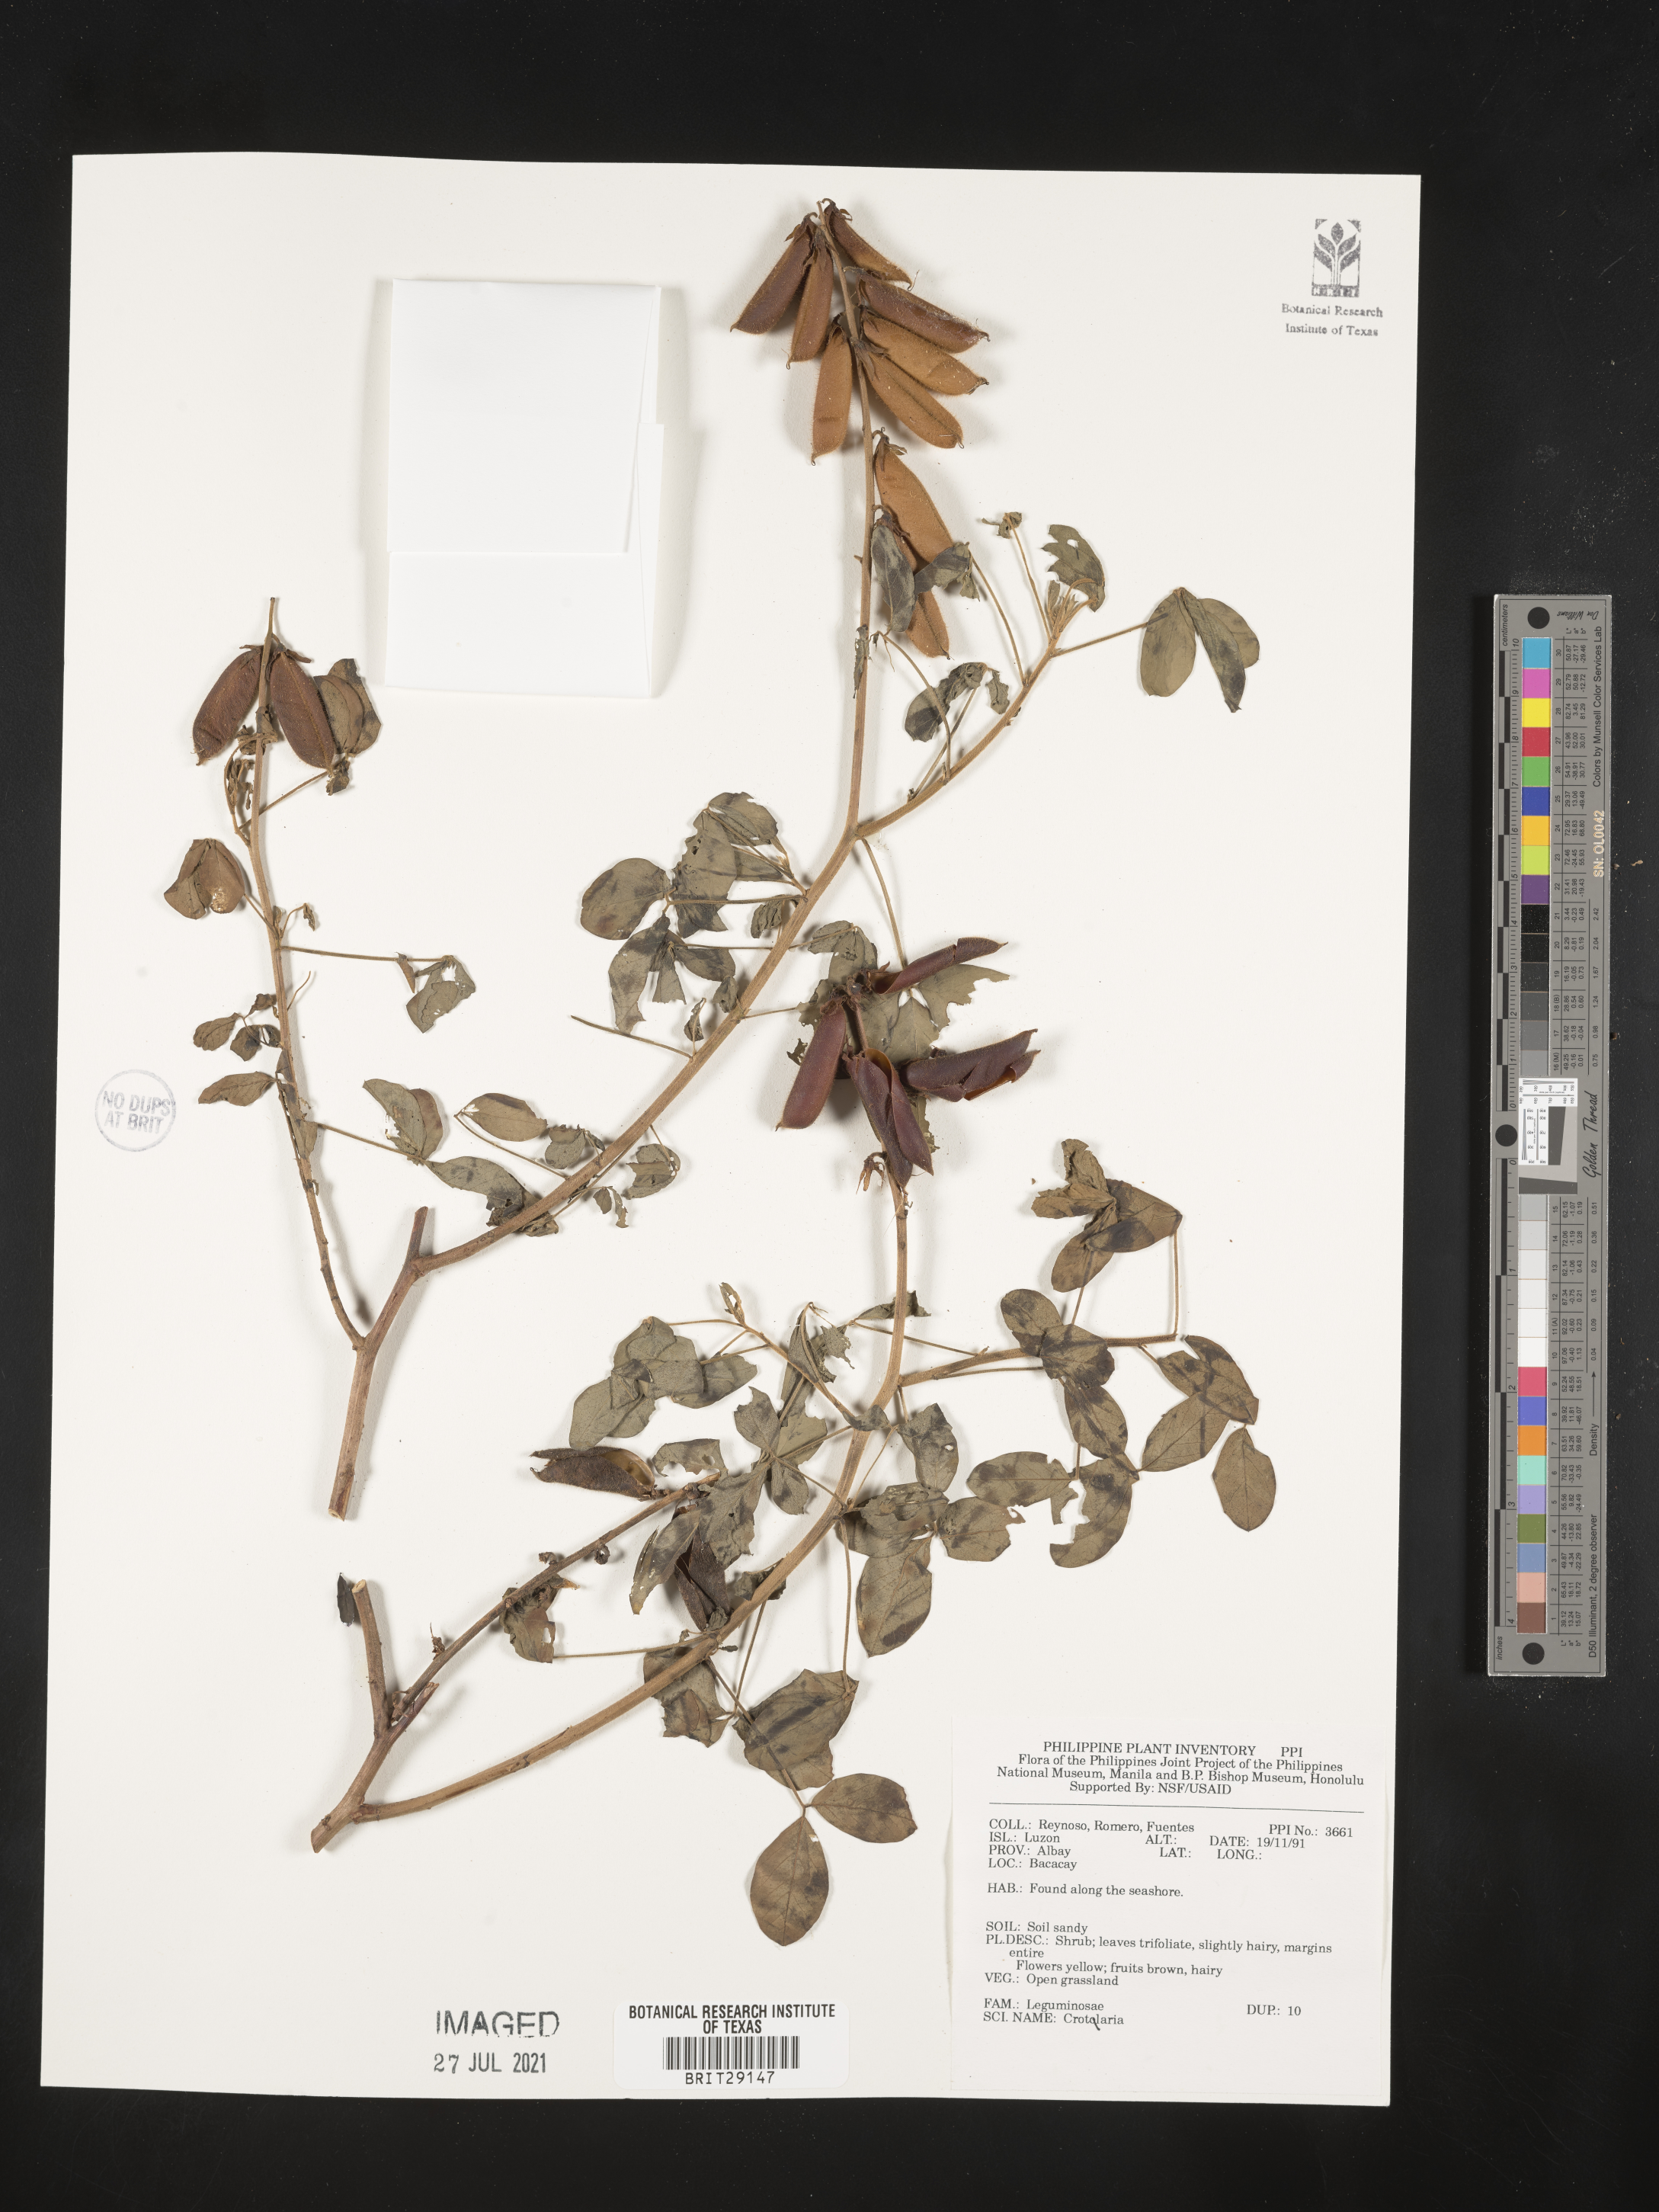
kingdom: Plantae
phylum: Tracheophyta
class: Magnoliopsida
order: Fabales
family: Fabaceae
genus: Crotalaria
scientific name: Crotalaria
